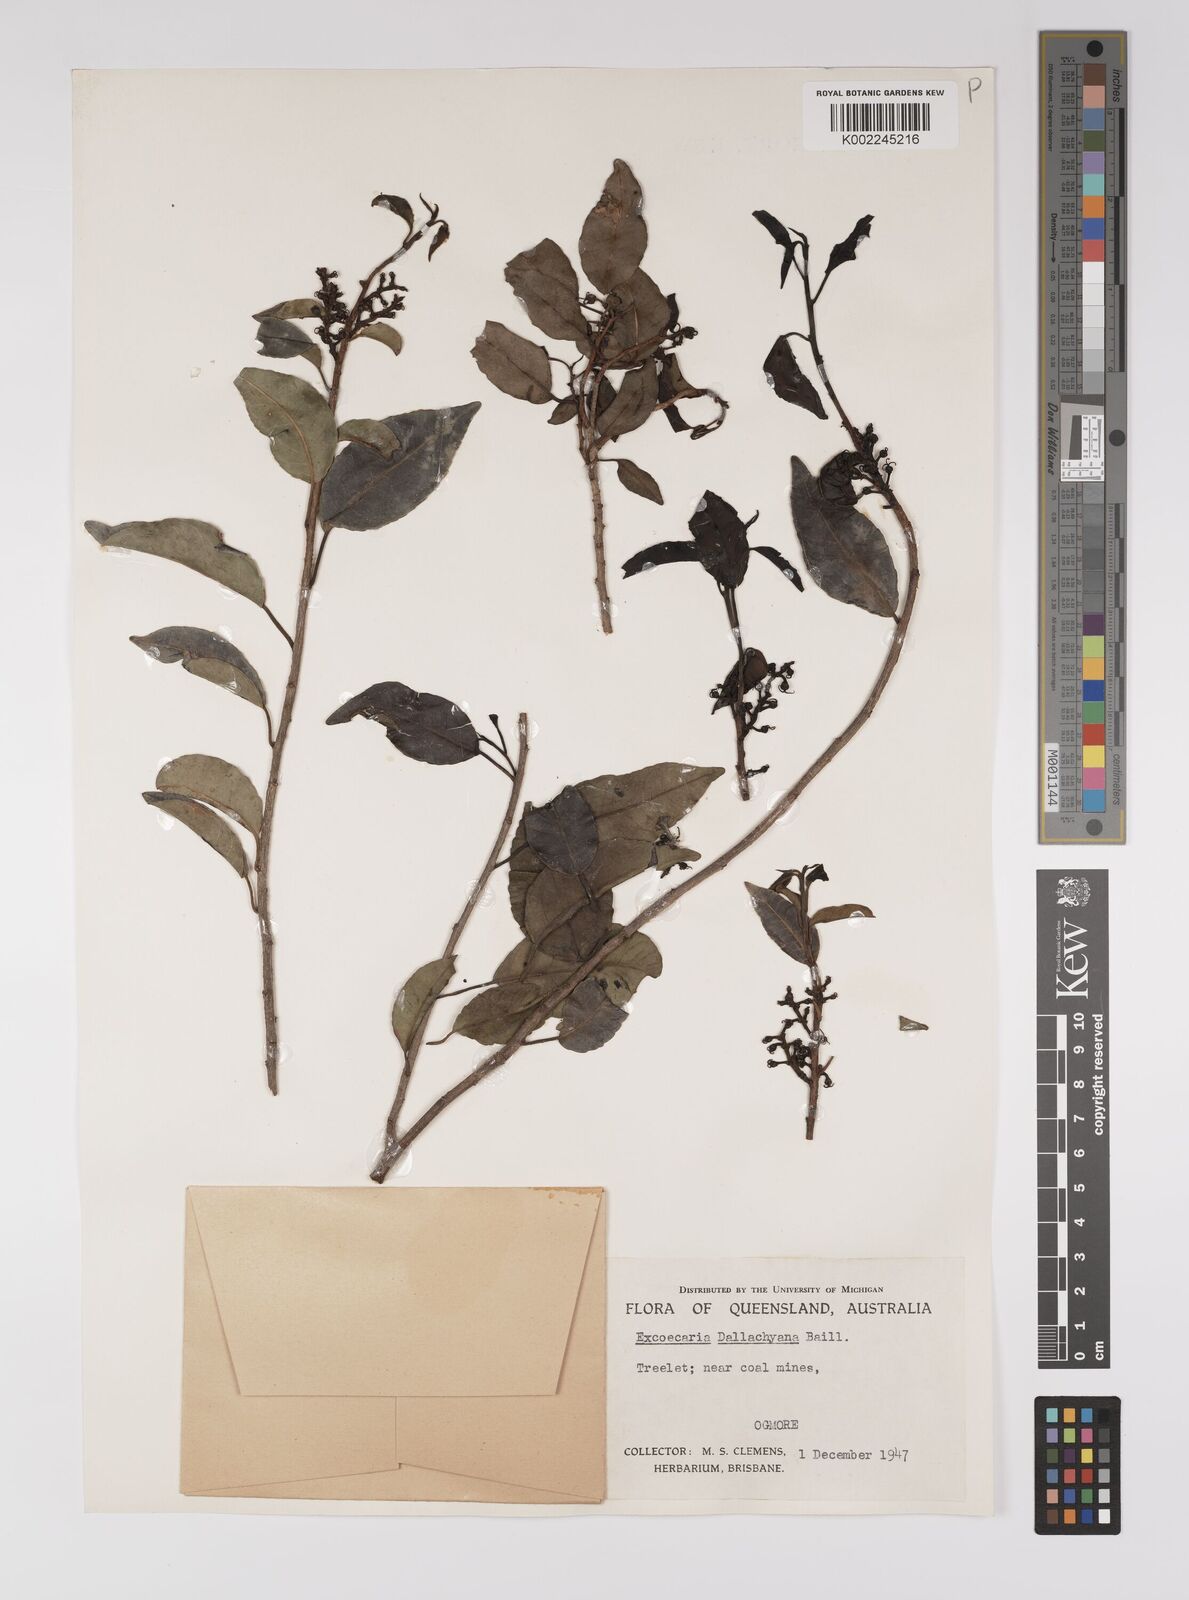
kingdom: Plantae
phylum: Tracheophyta
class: Magnoliopsida
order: Malpighiales
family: Euphorbiaceae
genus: Excoecaria
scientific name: Excoecaria dallachyana
